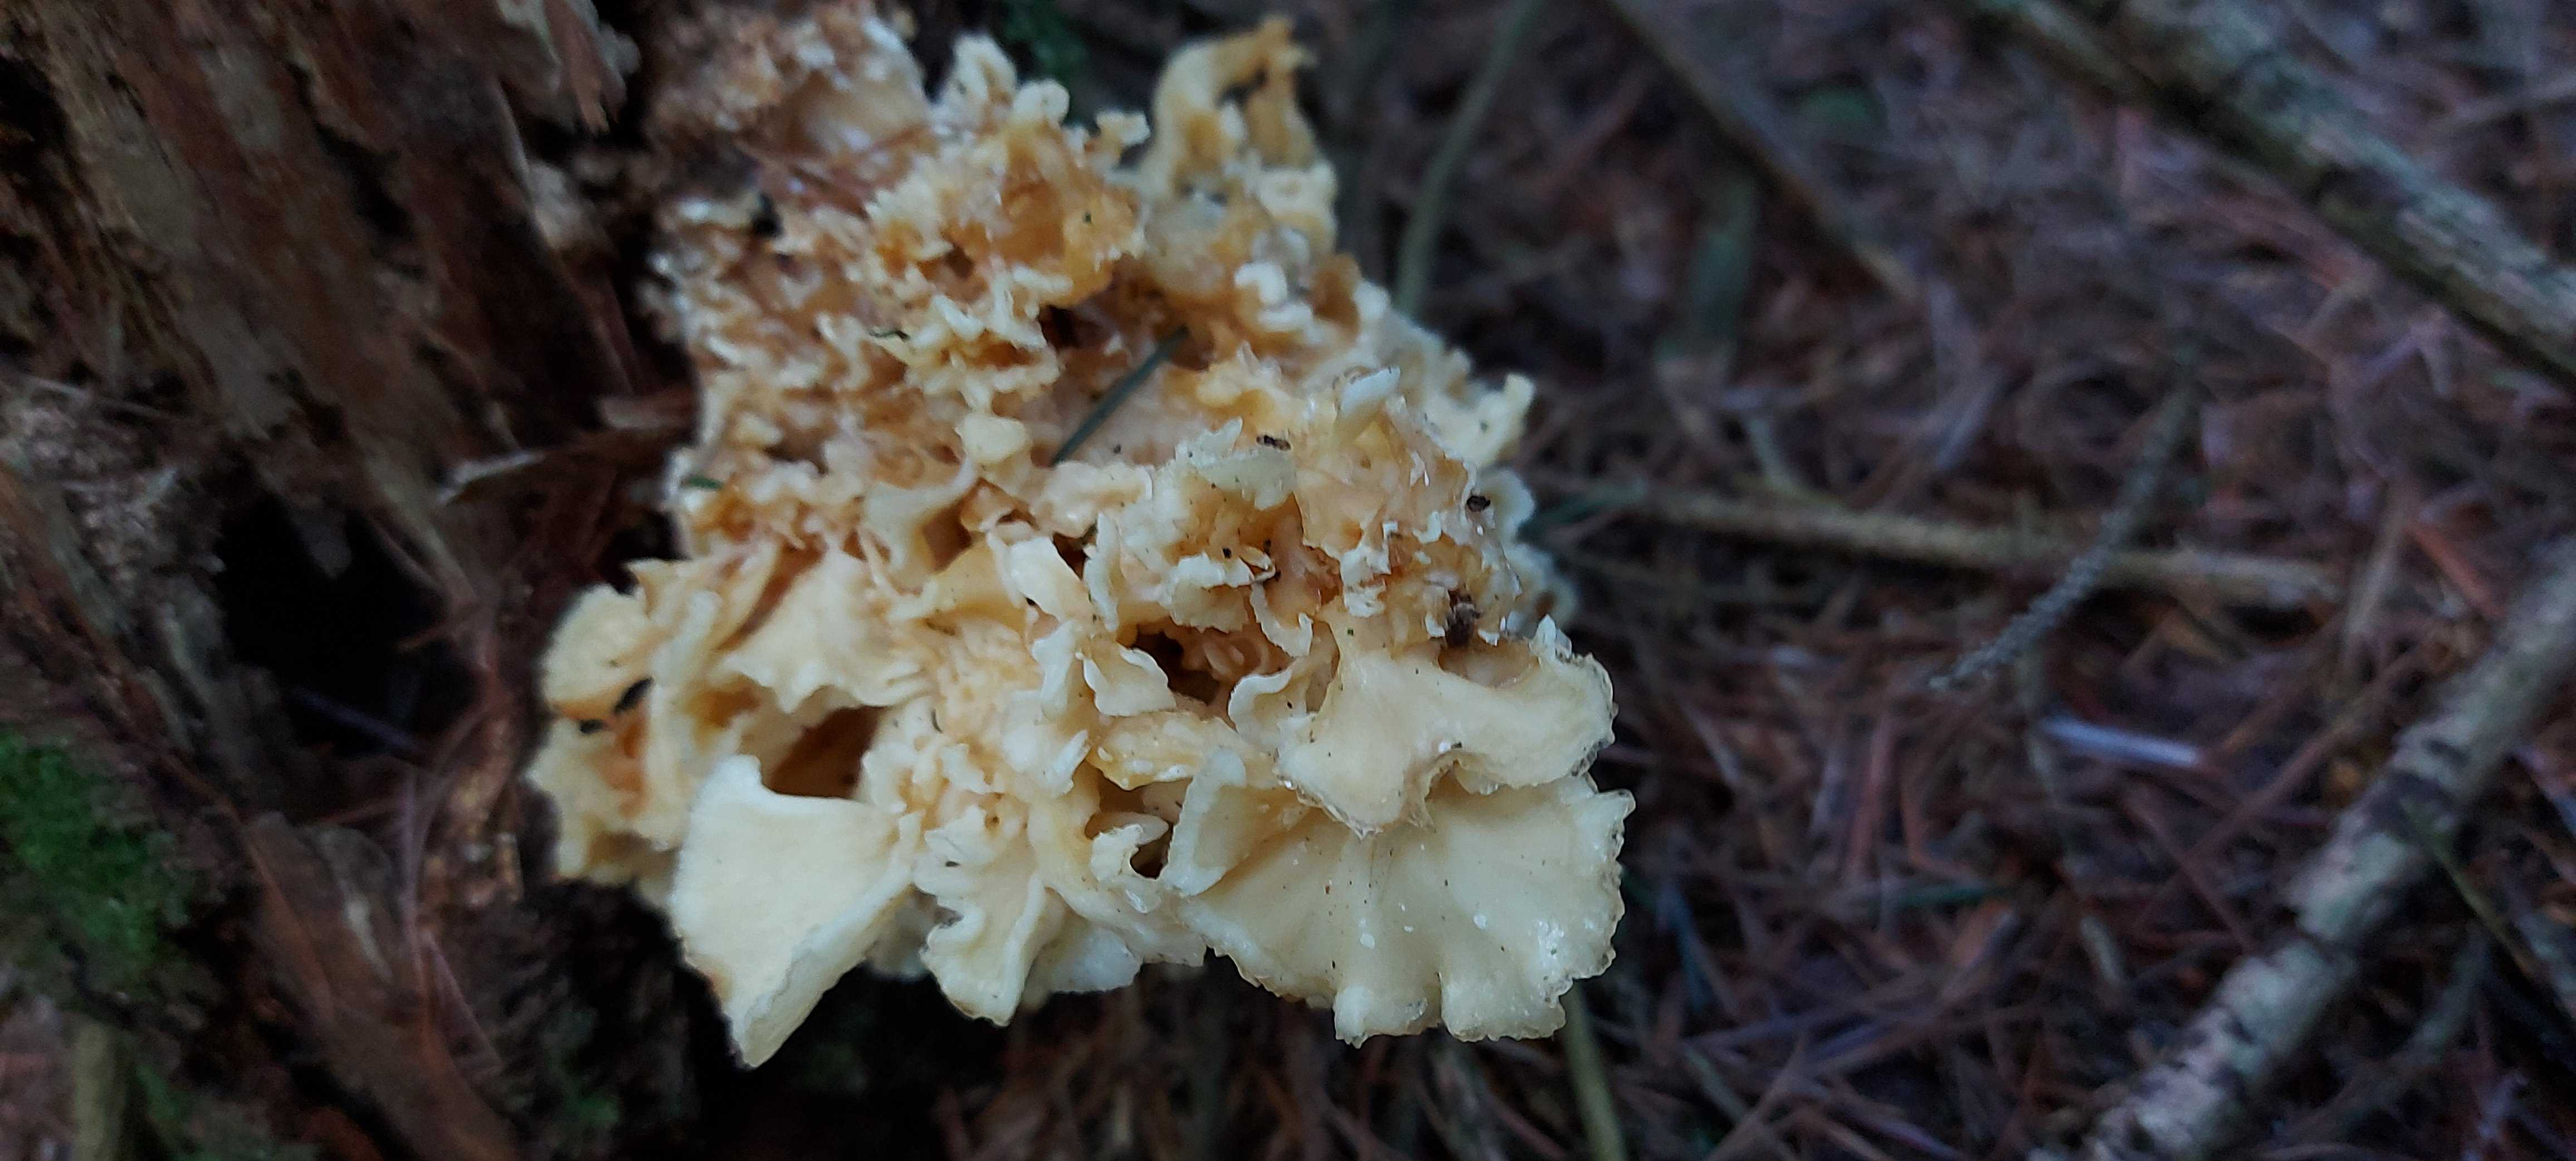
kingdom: Fungi
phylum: Basidiomycota
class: Agaricomycetes
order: Polyporales
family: Sparassidaceae
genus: Sparassis
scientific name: Sparassis crispa
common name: kruset blomkålssvamp
